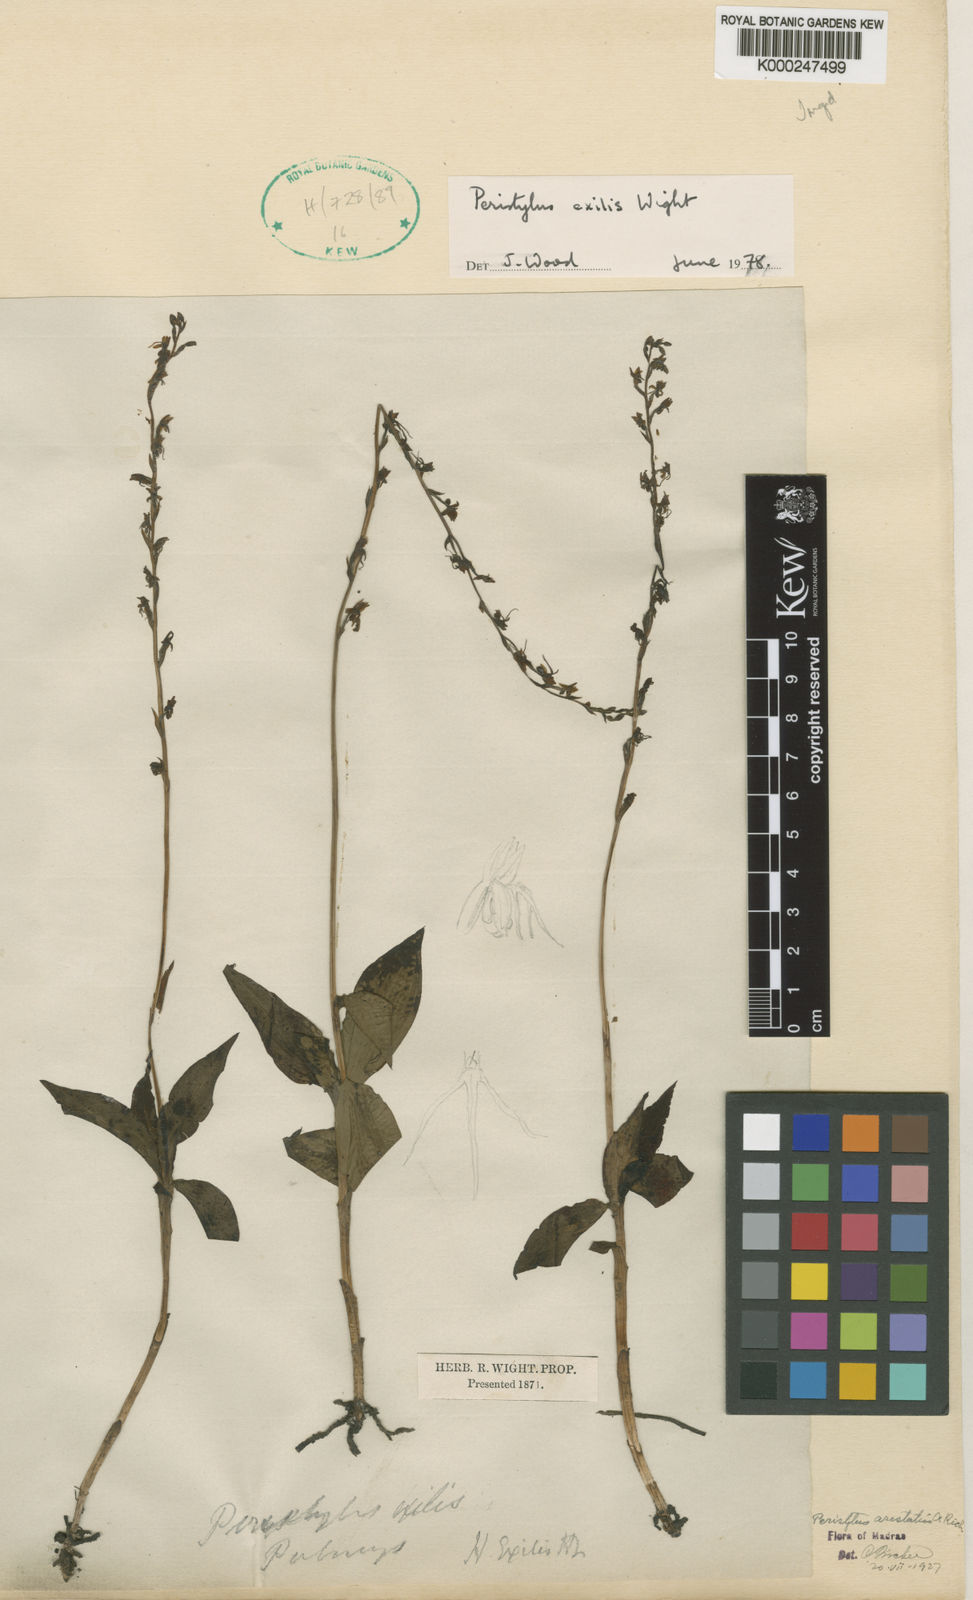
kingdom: Plantae
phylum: Tracheophyta
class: Liliopsida
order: Asparagales
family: Orchidaceae
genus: Peristylus
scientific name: Peristylus aristatus
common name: The spiked peristylus
